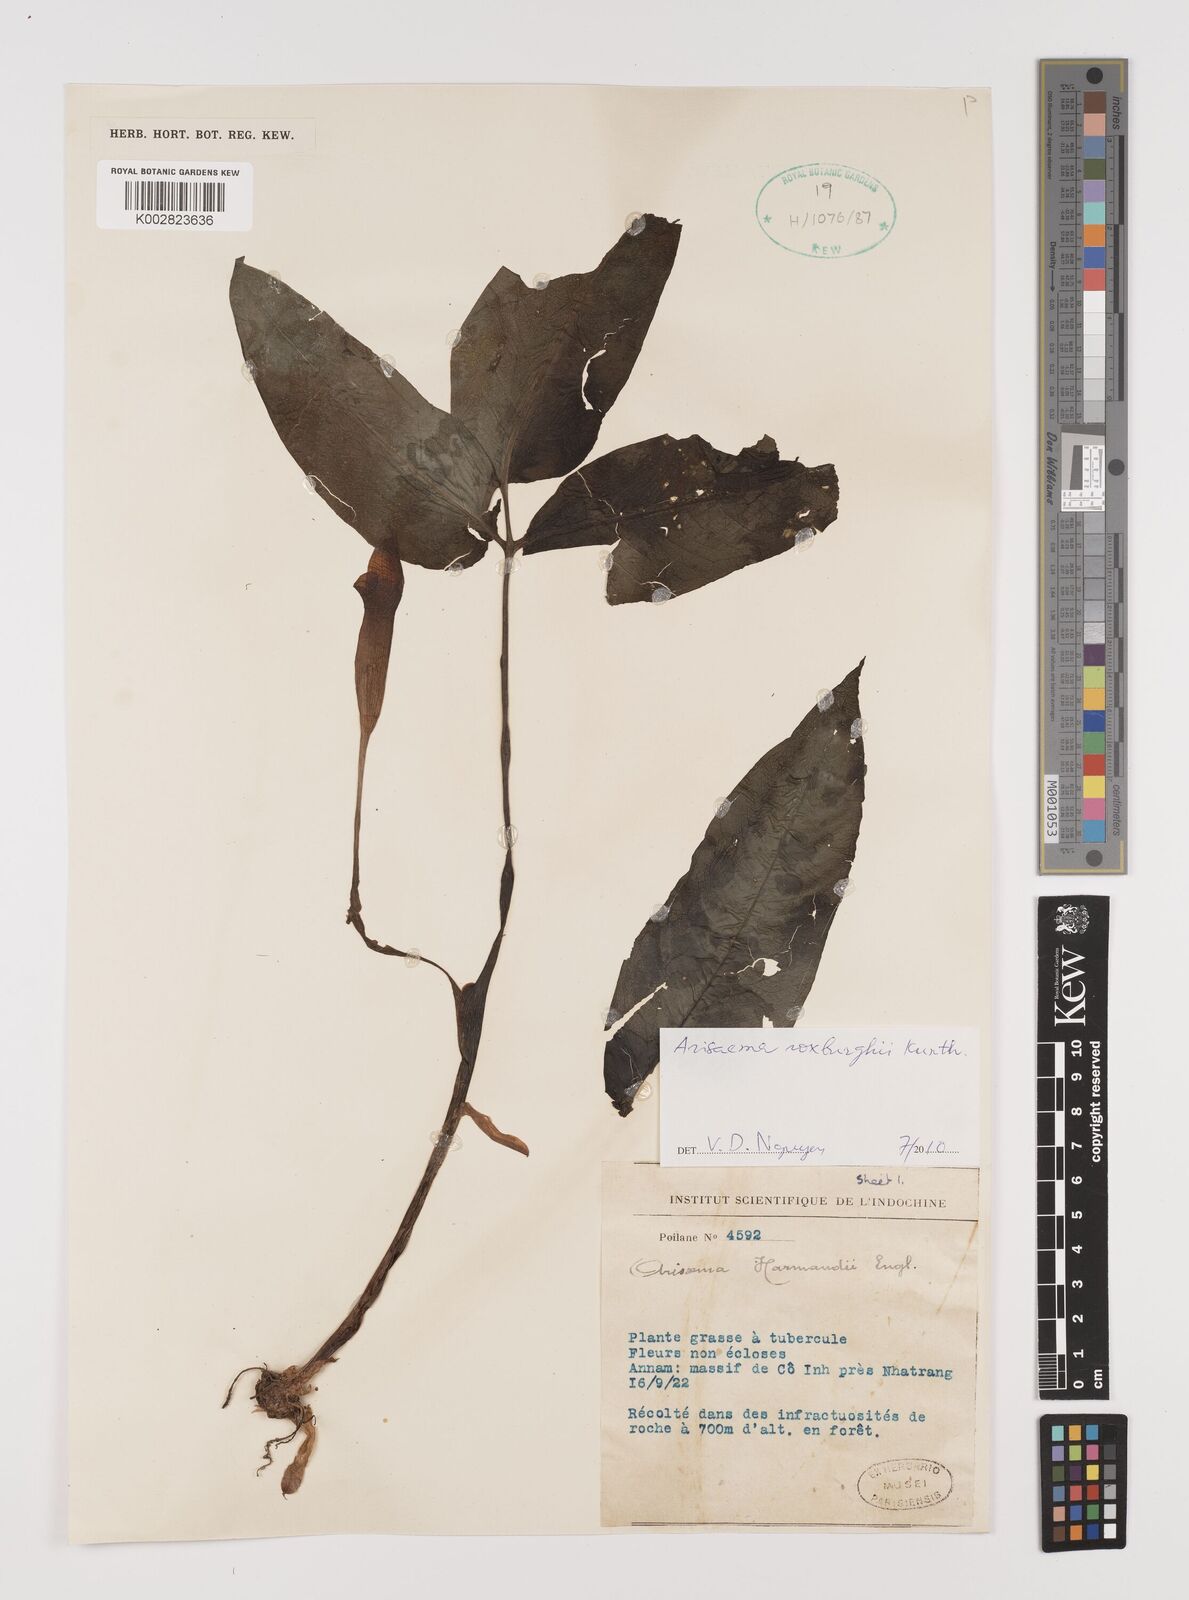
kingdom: Plantae
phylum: Tracheophyta
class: Liliopsida
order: Alismatales
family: Araceae
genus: Arisaema
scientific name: Arisaema roxburghii
